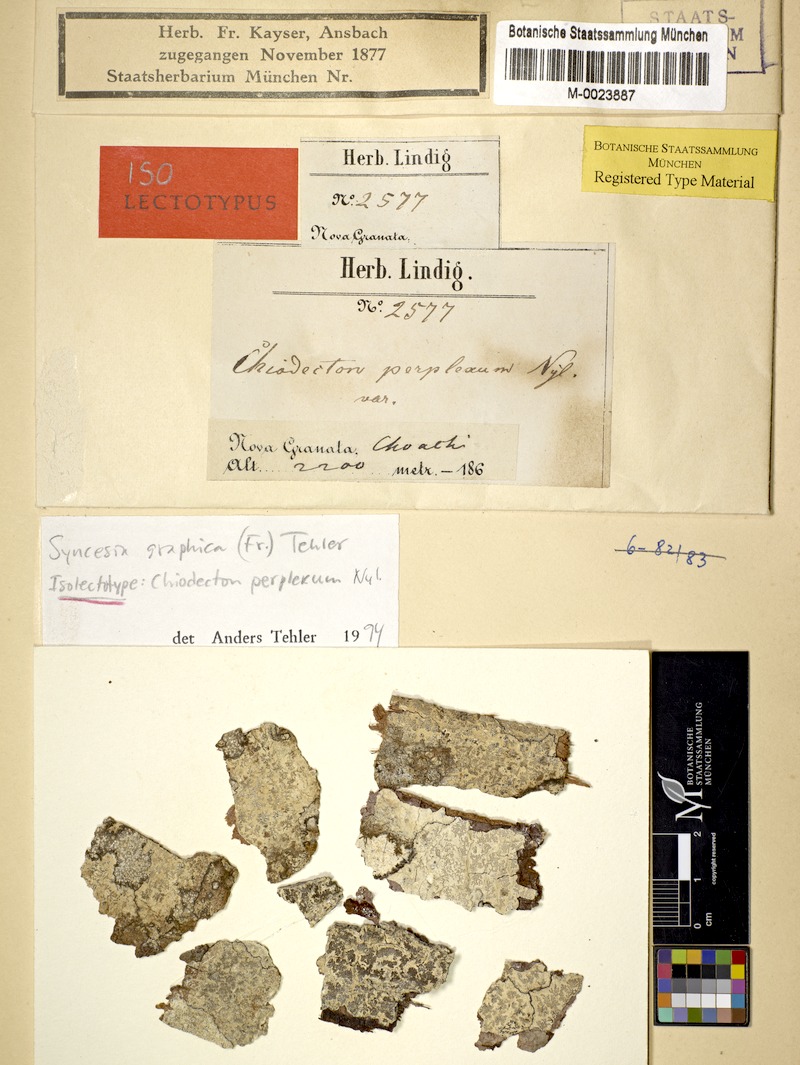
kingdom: Fungi
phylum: Ascomycota
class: Arthoniomycetes
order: Arthoniales
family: Roccellaceae
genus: Syncesia
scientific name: Syncesia graphica
